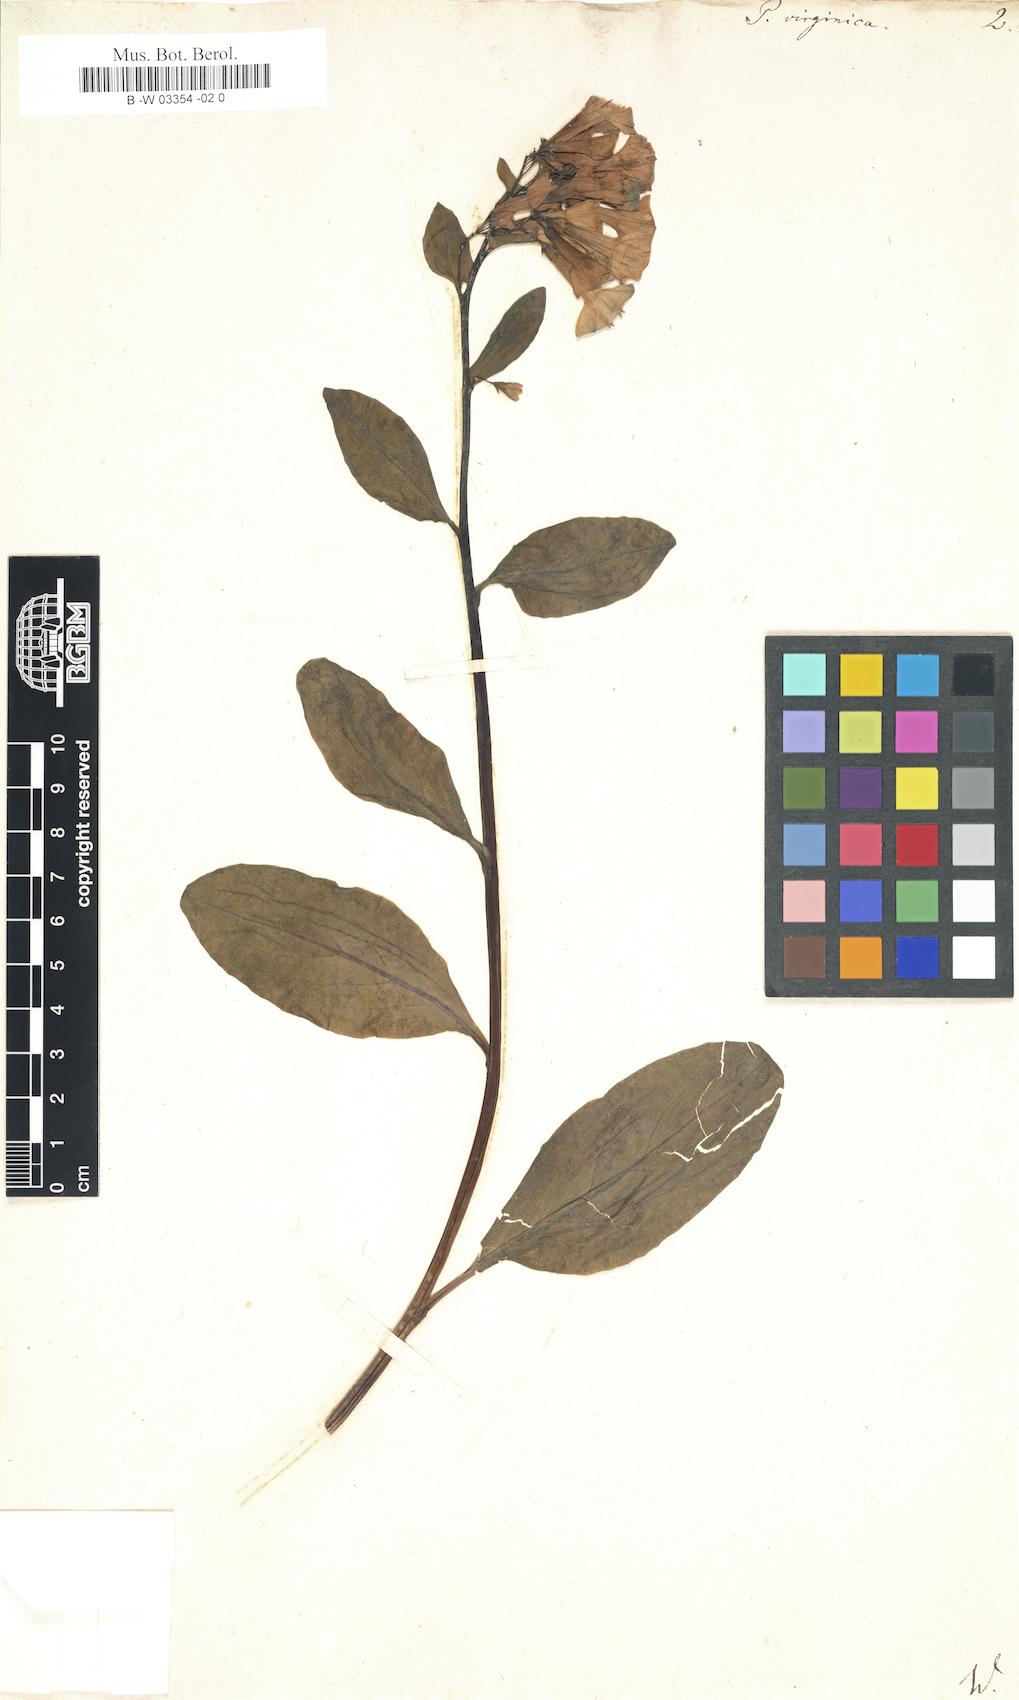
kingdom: Plantae
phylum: Tracheophyta
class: Magnoliopsida
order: Boraginales
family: Boraginaceae
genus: Mertensia
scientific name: Mertensia virginica
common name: Virginia bluebells
